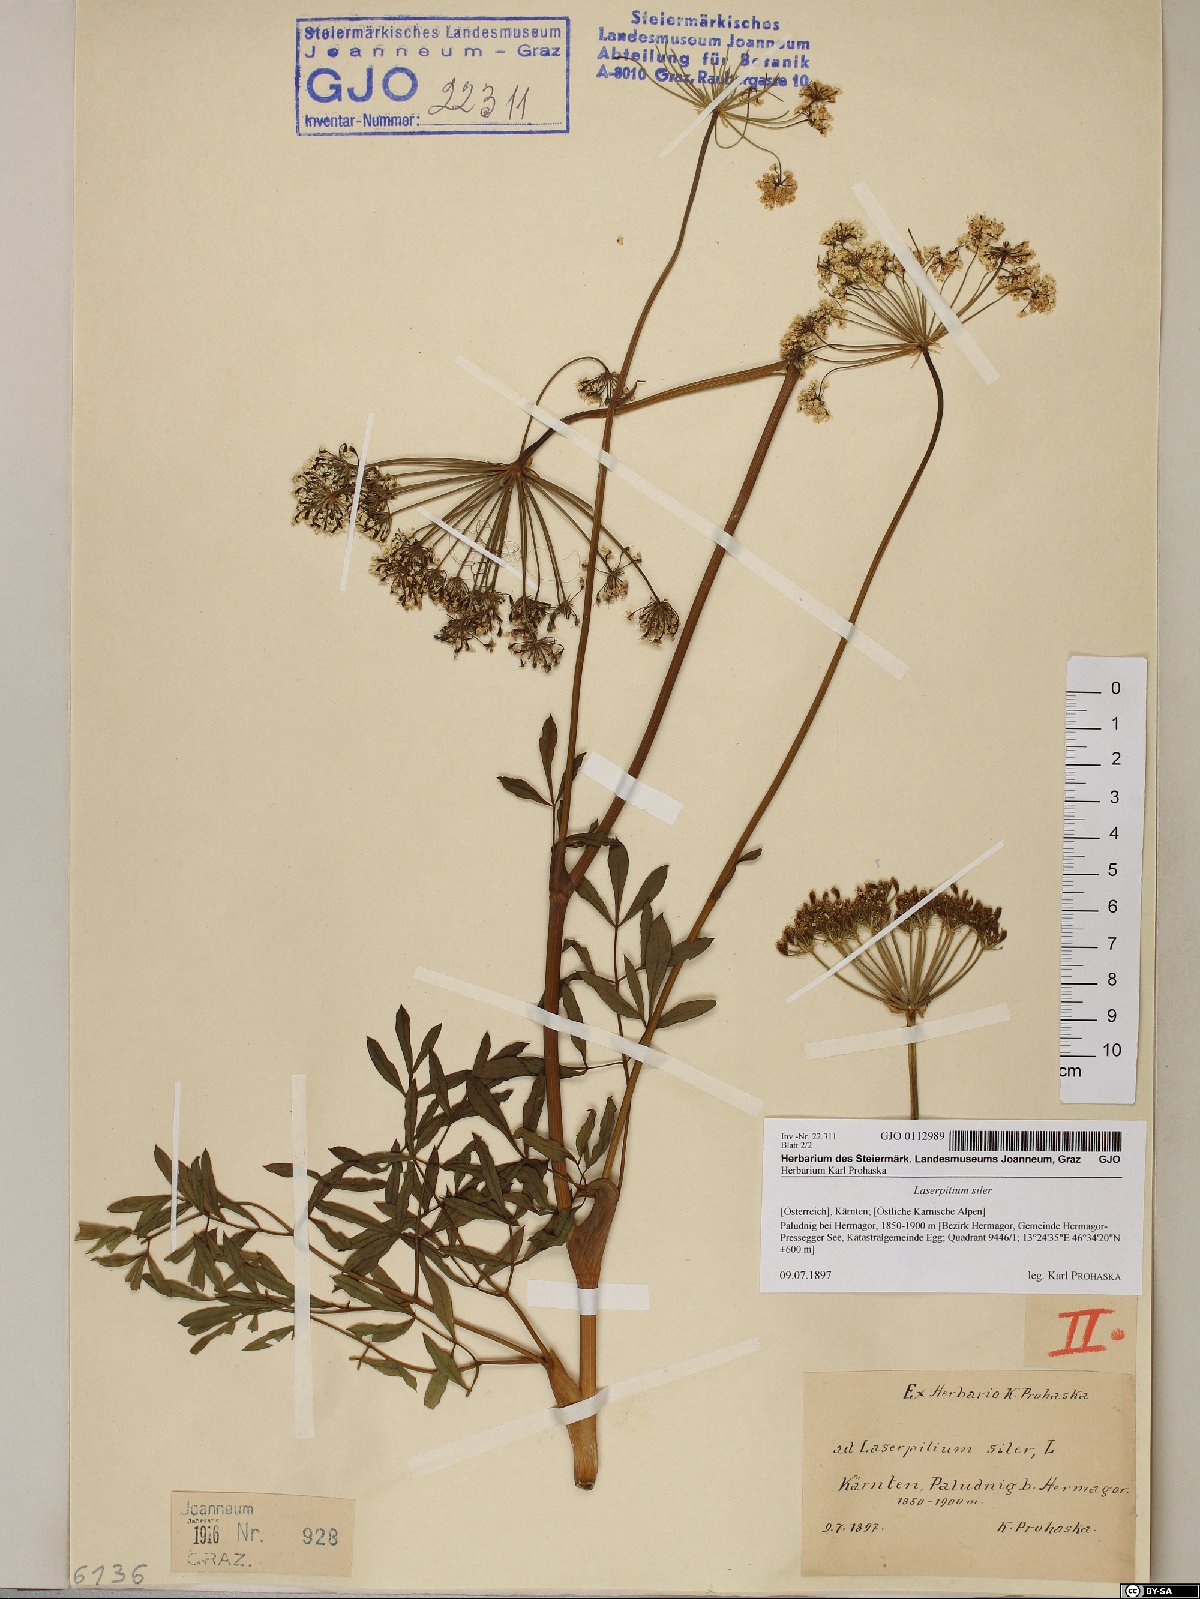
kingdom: Plantae
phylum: Tracheophyta
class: Magnoliopsida
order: Apiales
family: Apiaceae
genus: Siler
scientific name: Siler montanum
